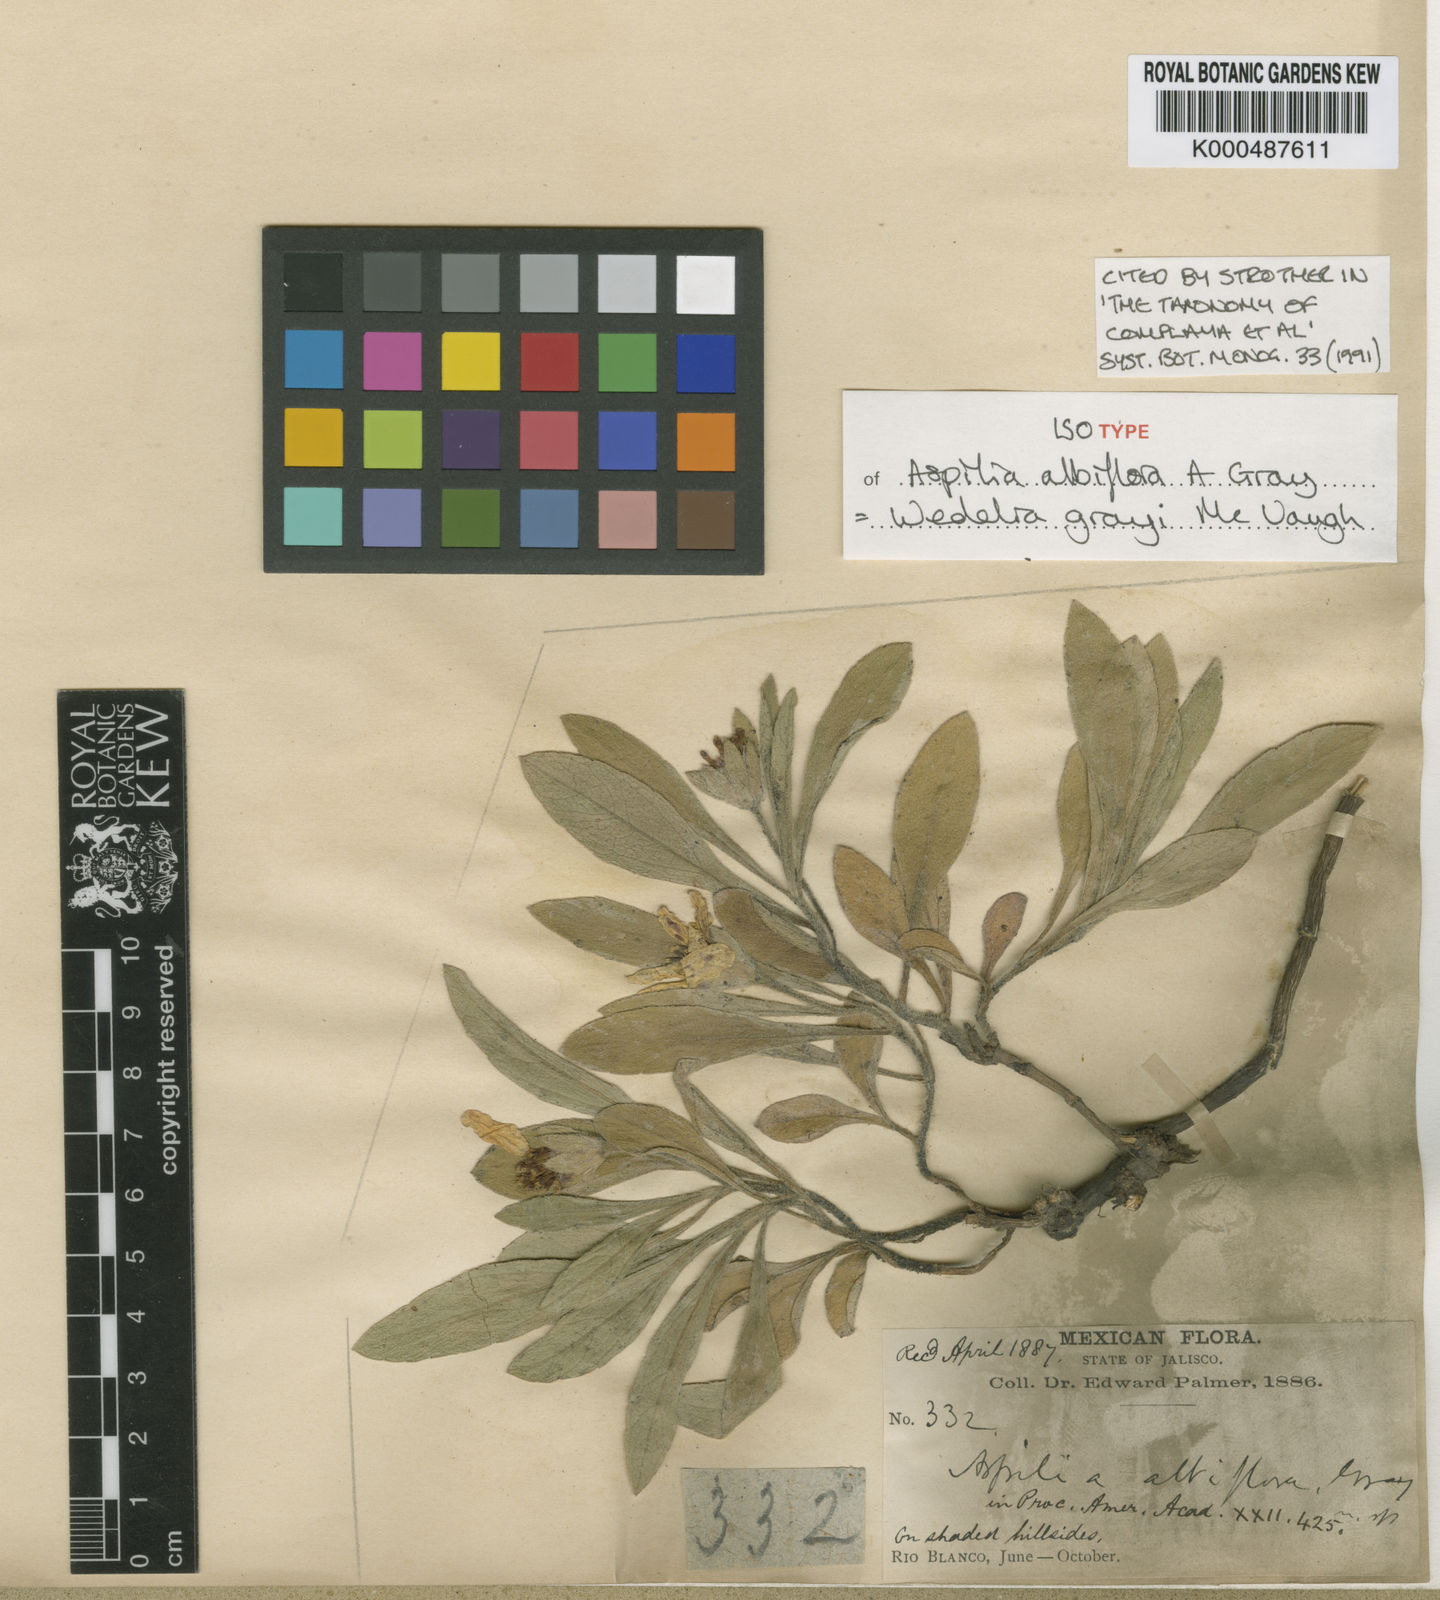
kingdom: Plantae
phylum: Tracheophyta
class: Magnoliopsida
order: Asterales
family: Asteraceae
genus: Wedelia
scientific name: Wedelia grayi
